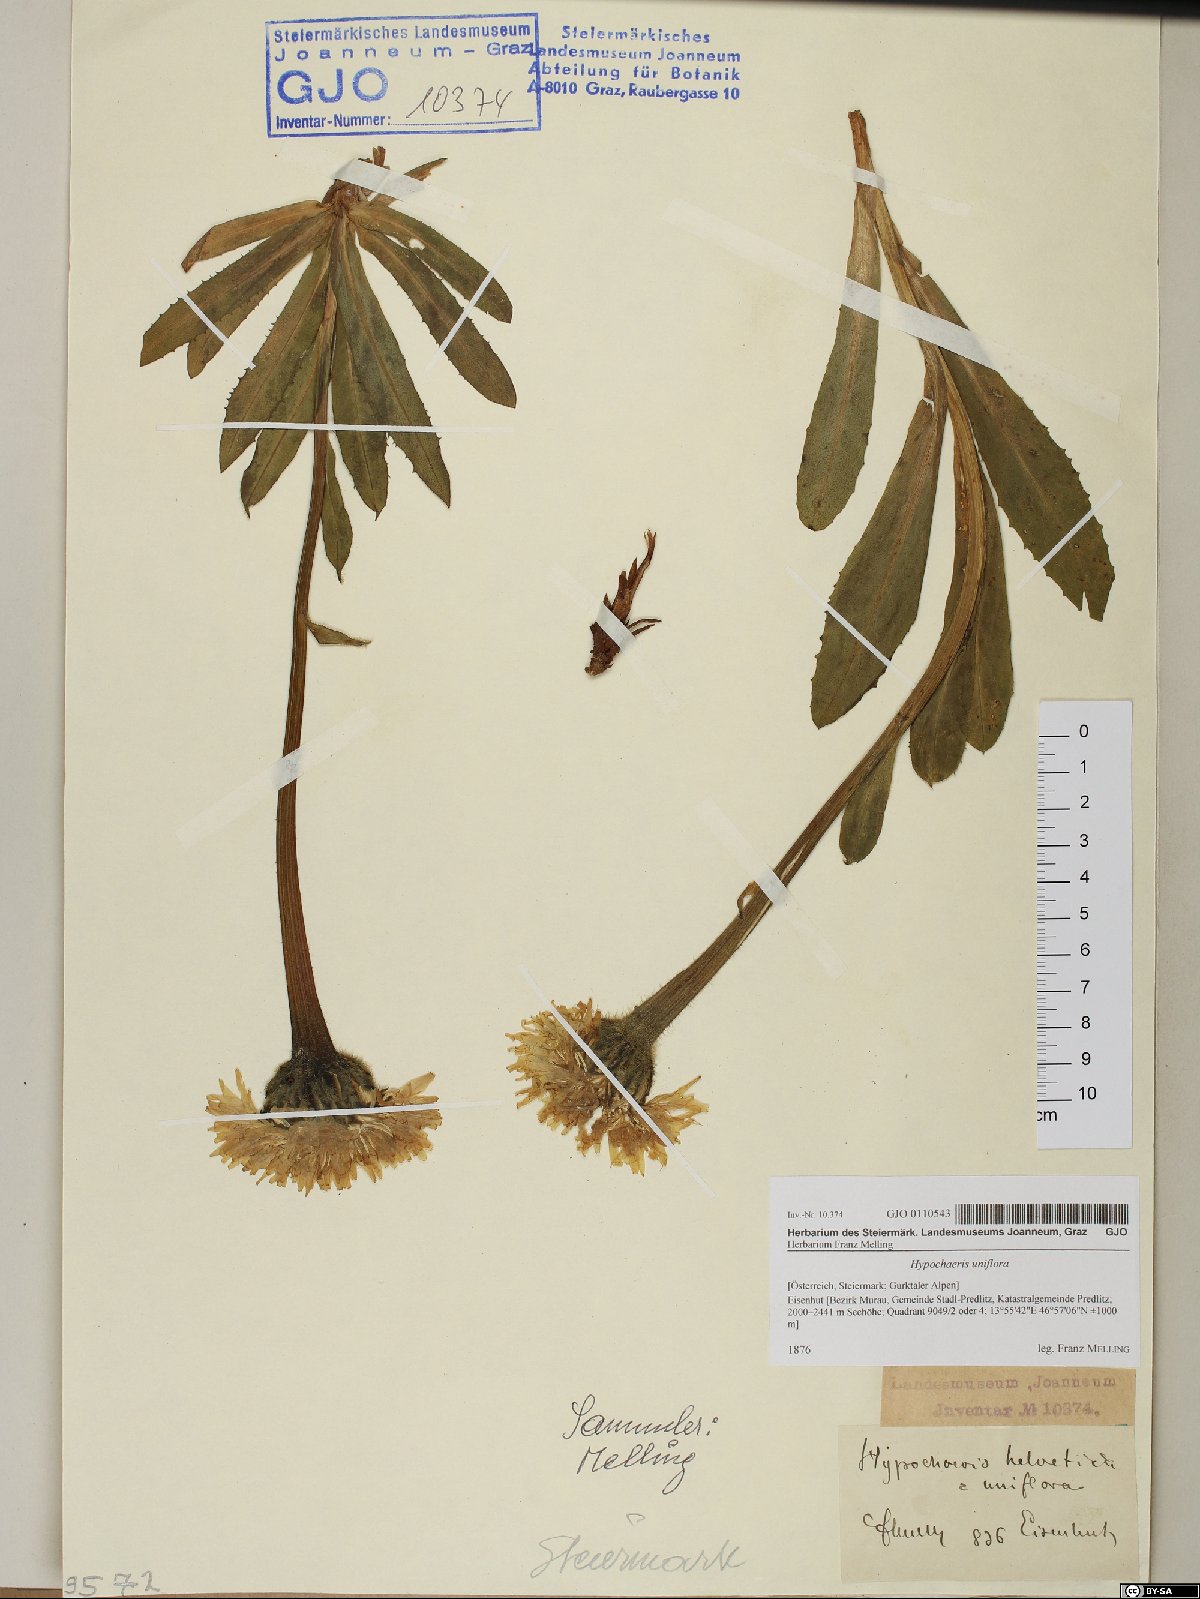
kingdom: Plantae
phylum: Tracheophyta
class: Magnoliopsida
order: Asterales
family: Asteraceae
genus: Trommsdorffia
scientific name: Trommsdorffia uniflora
